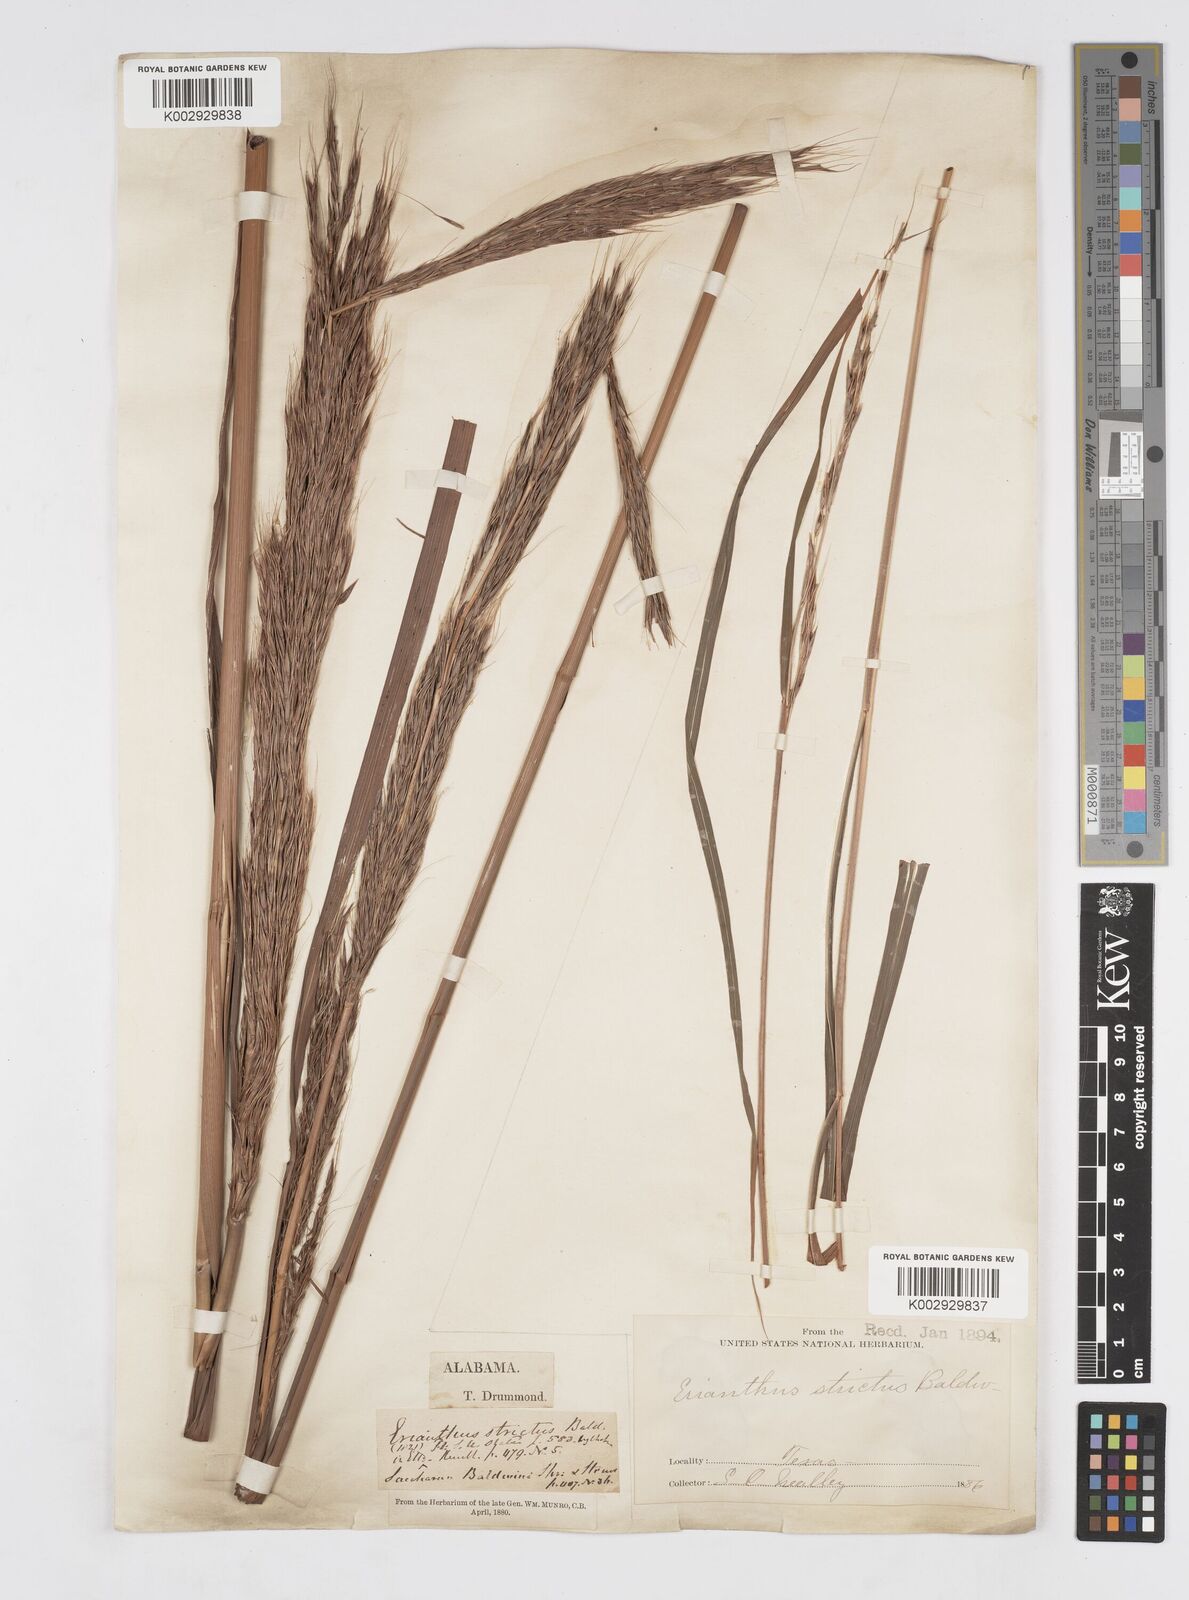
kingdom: Plantae
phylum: Tracheophyta
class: Liliopsida
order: Poales
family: Poaceae
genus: Erianthus
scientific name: Erianthus strictus
